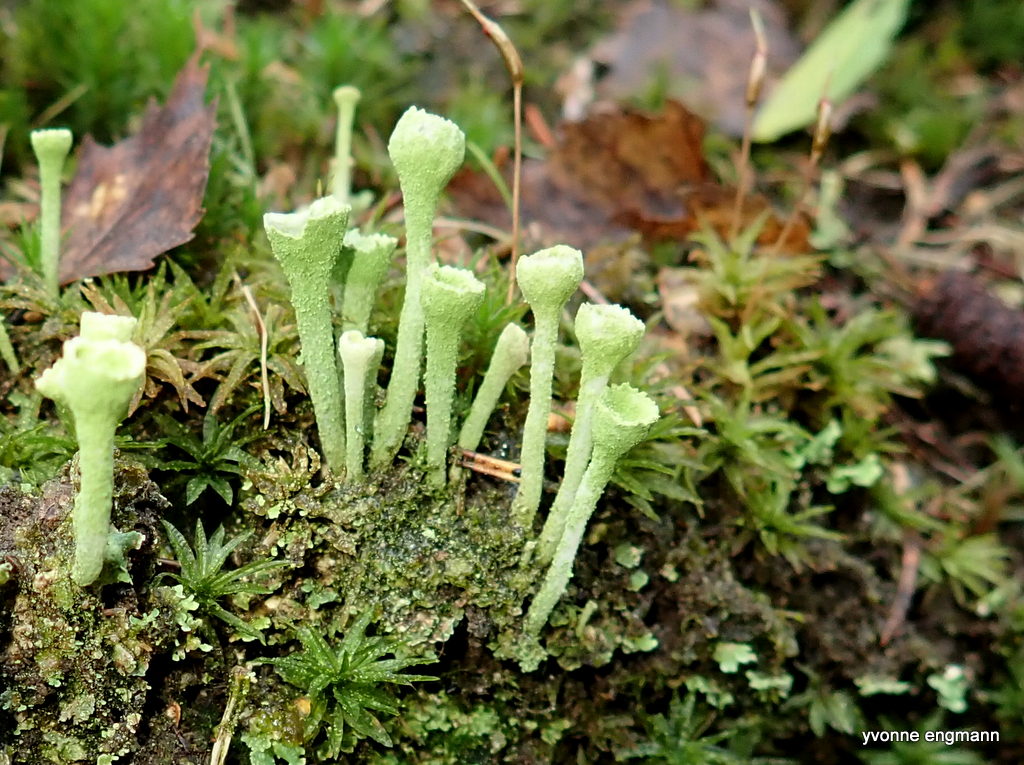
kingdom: Fungi
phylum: Ascomycota
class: Lecanoromycetes
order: Lecanorales
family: Cladoniaceae
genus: Cladonia
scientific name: Cladonia fimbriata
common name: bleggrøn bægerlav
